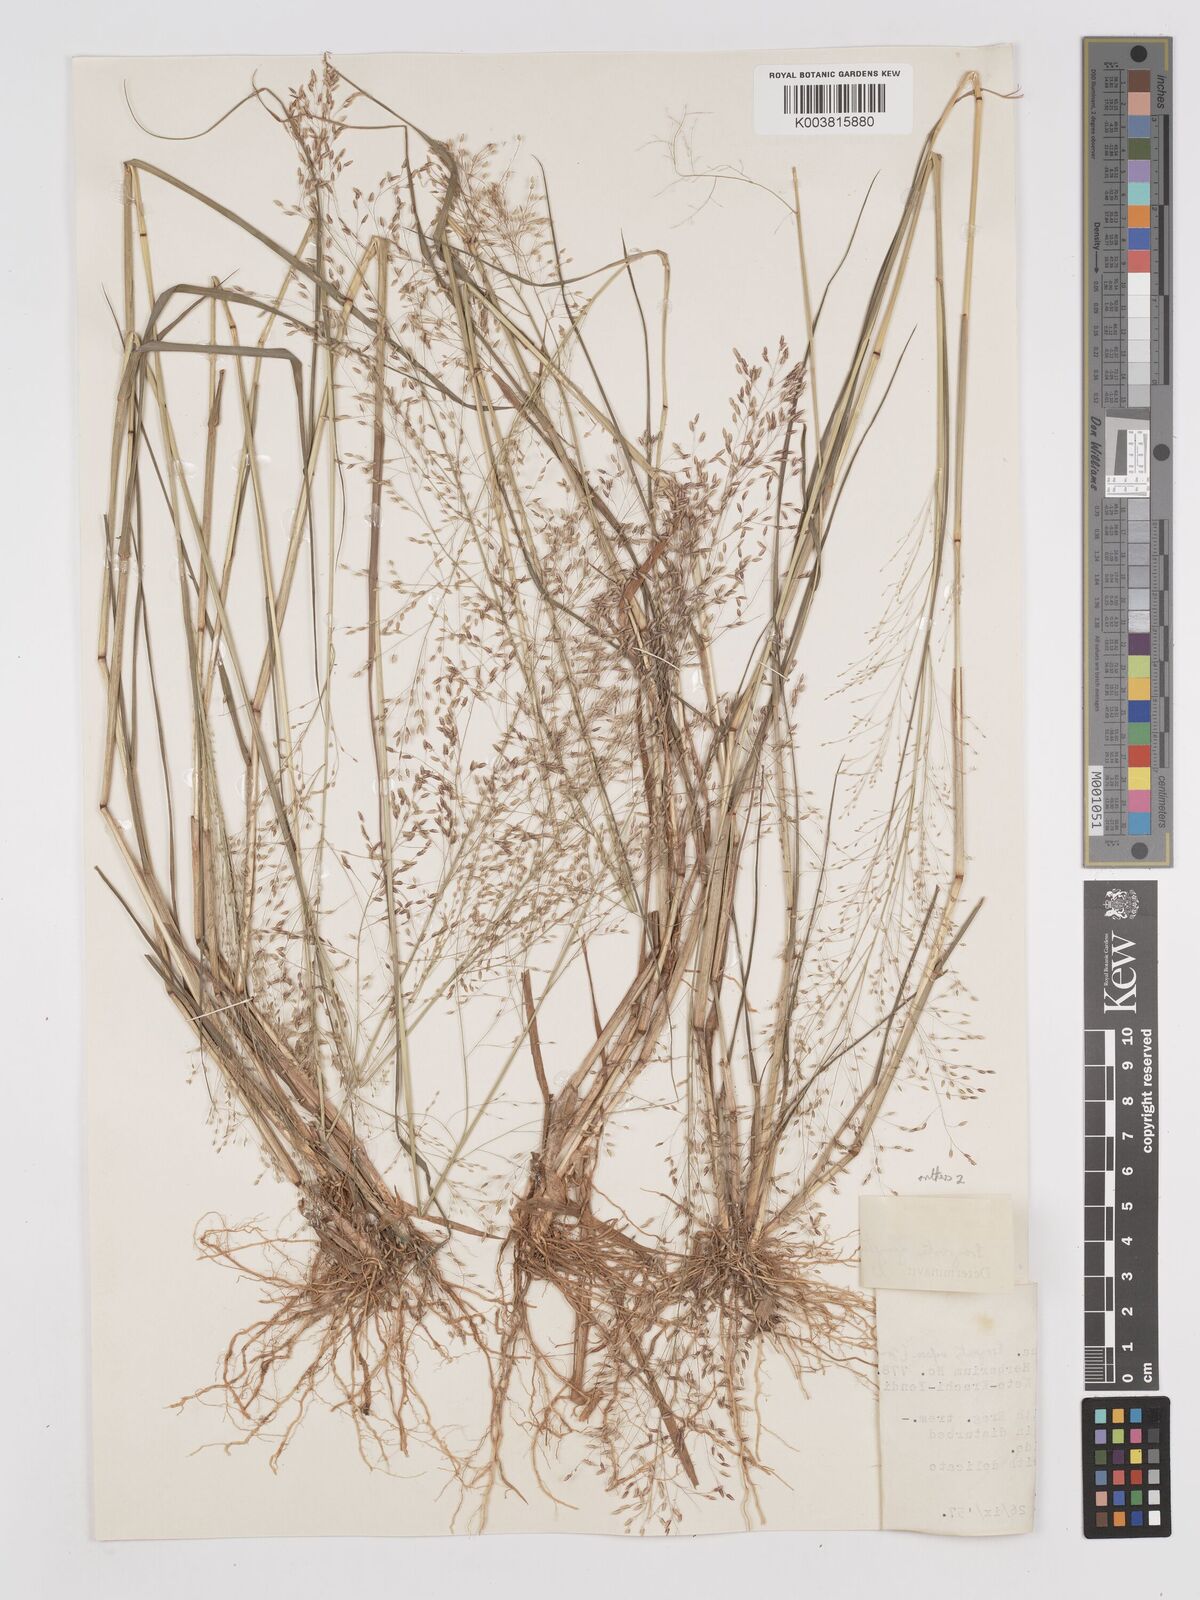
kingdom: Plantae
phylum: Tracheophyta
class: Liliopsida
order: Poales
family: Poaceae
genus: Eragrostis
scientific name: Eragrostis gangetica
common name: Slimflower lovegrass
